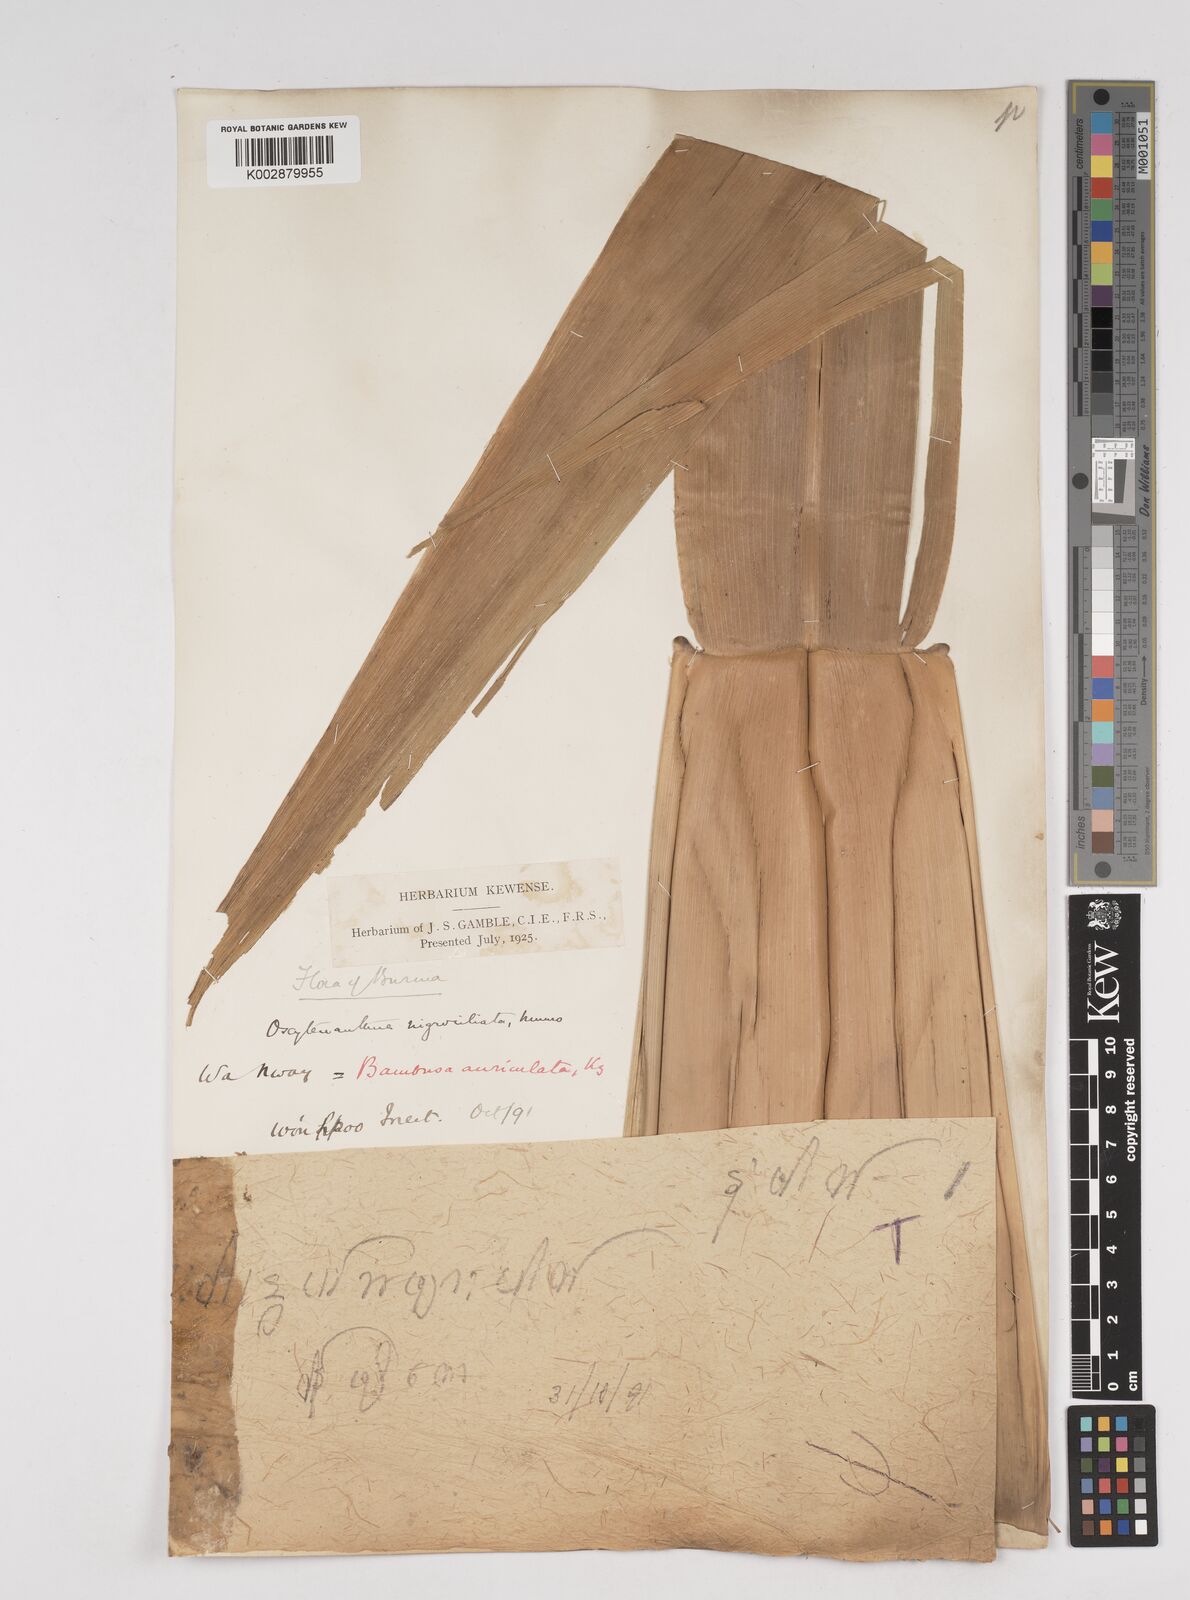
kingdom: Plantae
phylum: Tracheophyta
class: Liliopsida
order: Poales
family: Poaceae
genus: Gigantochloa
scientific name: Gigantochloa nigrociliata
